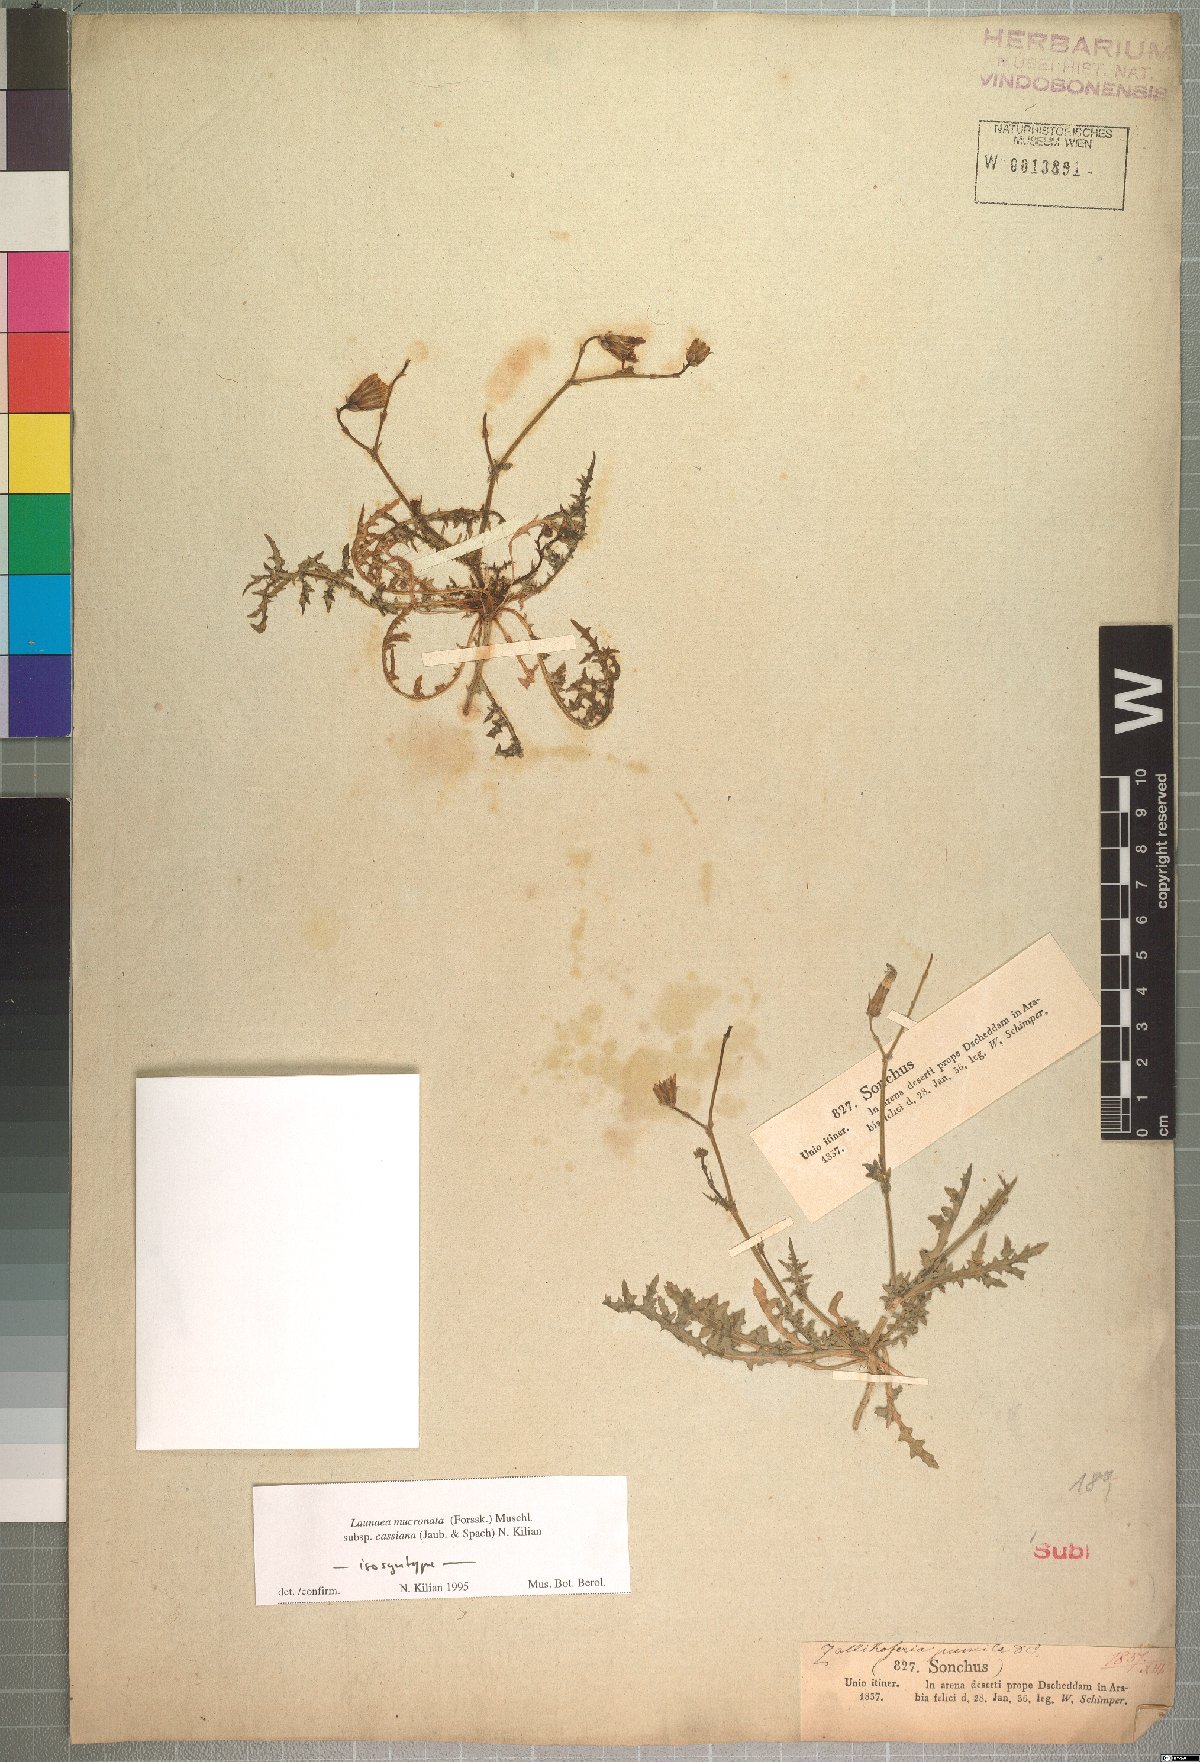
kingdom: Plantae
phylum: Tracheophyta
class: Magnoliopsida
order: Asterales
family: Asteraceae
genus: Launaea
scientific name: Launaea mucronata
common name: Mucronate launea
